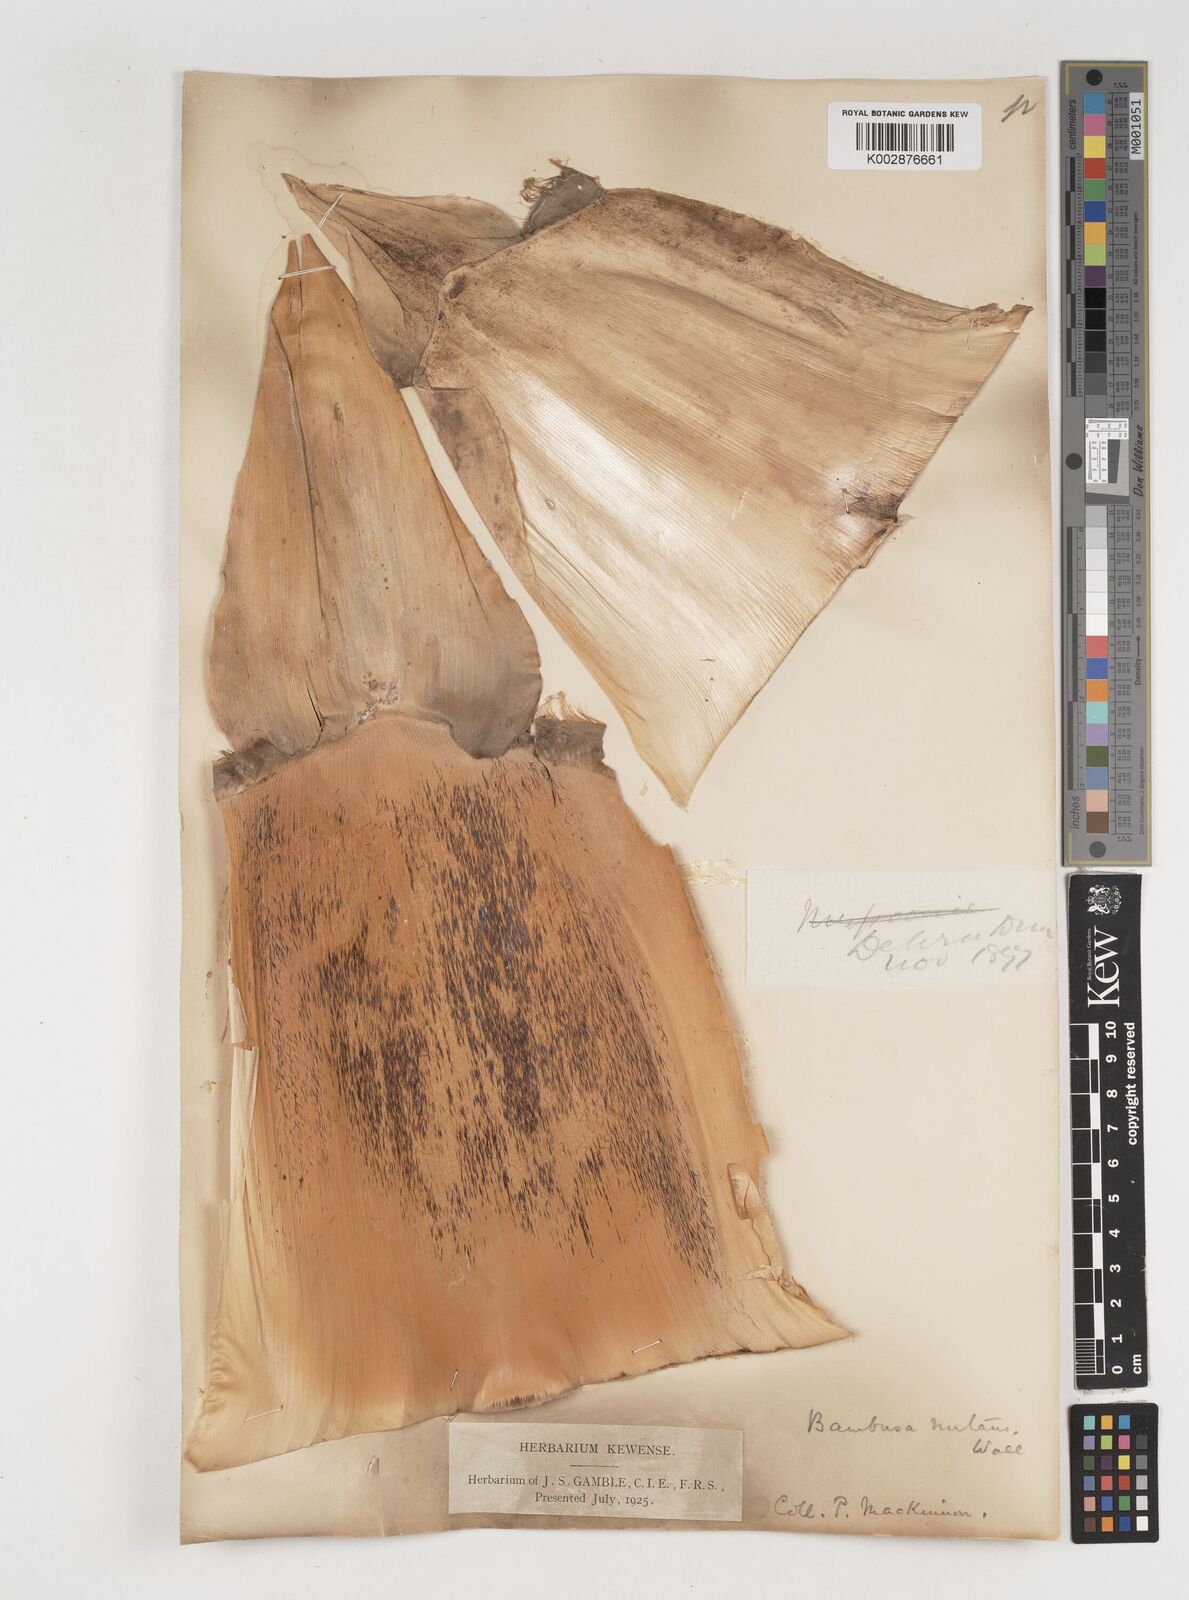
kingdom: Plantae
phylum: Tracheophyta
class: Liliopsida
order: Poales
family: Poaceae
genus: Bambusa
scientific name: Bambusa nutans
